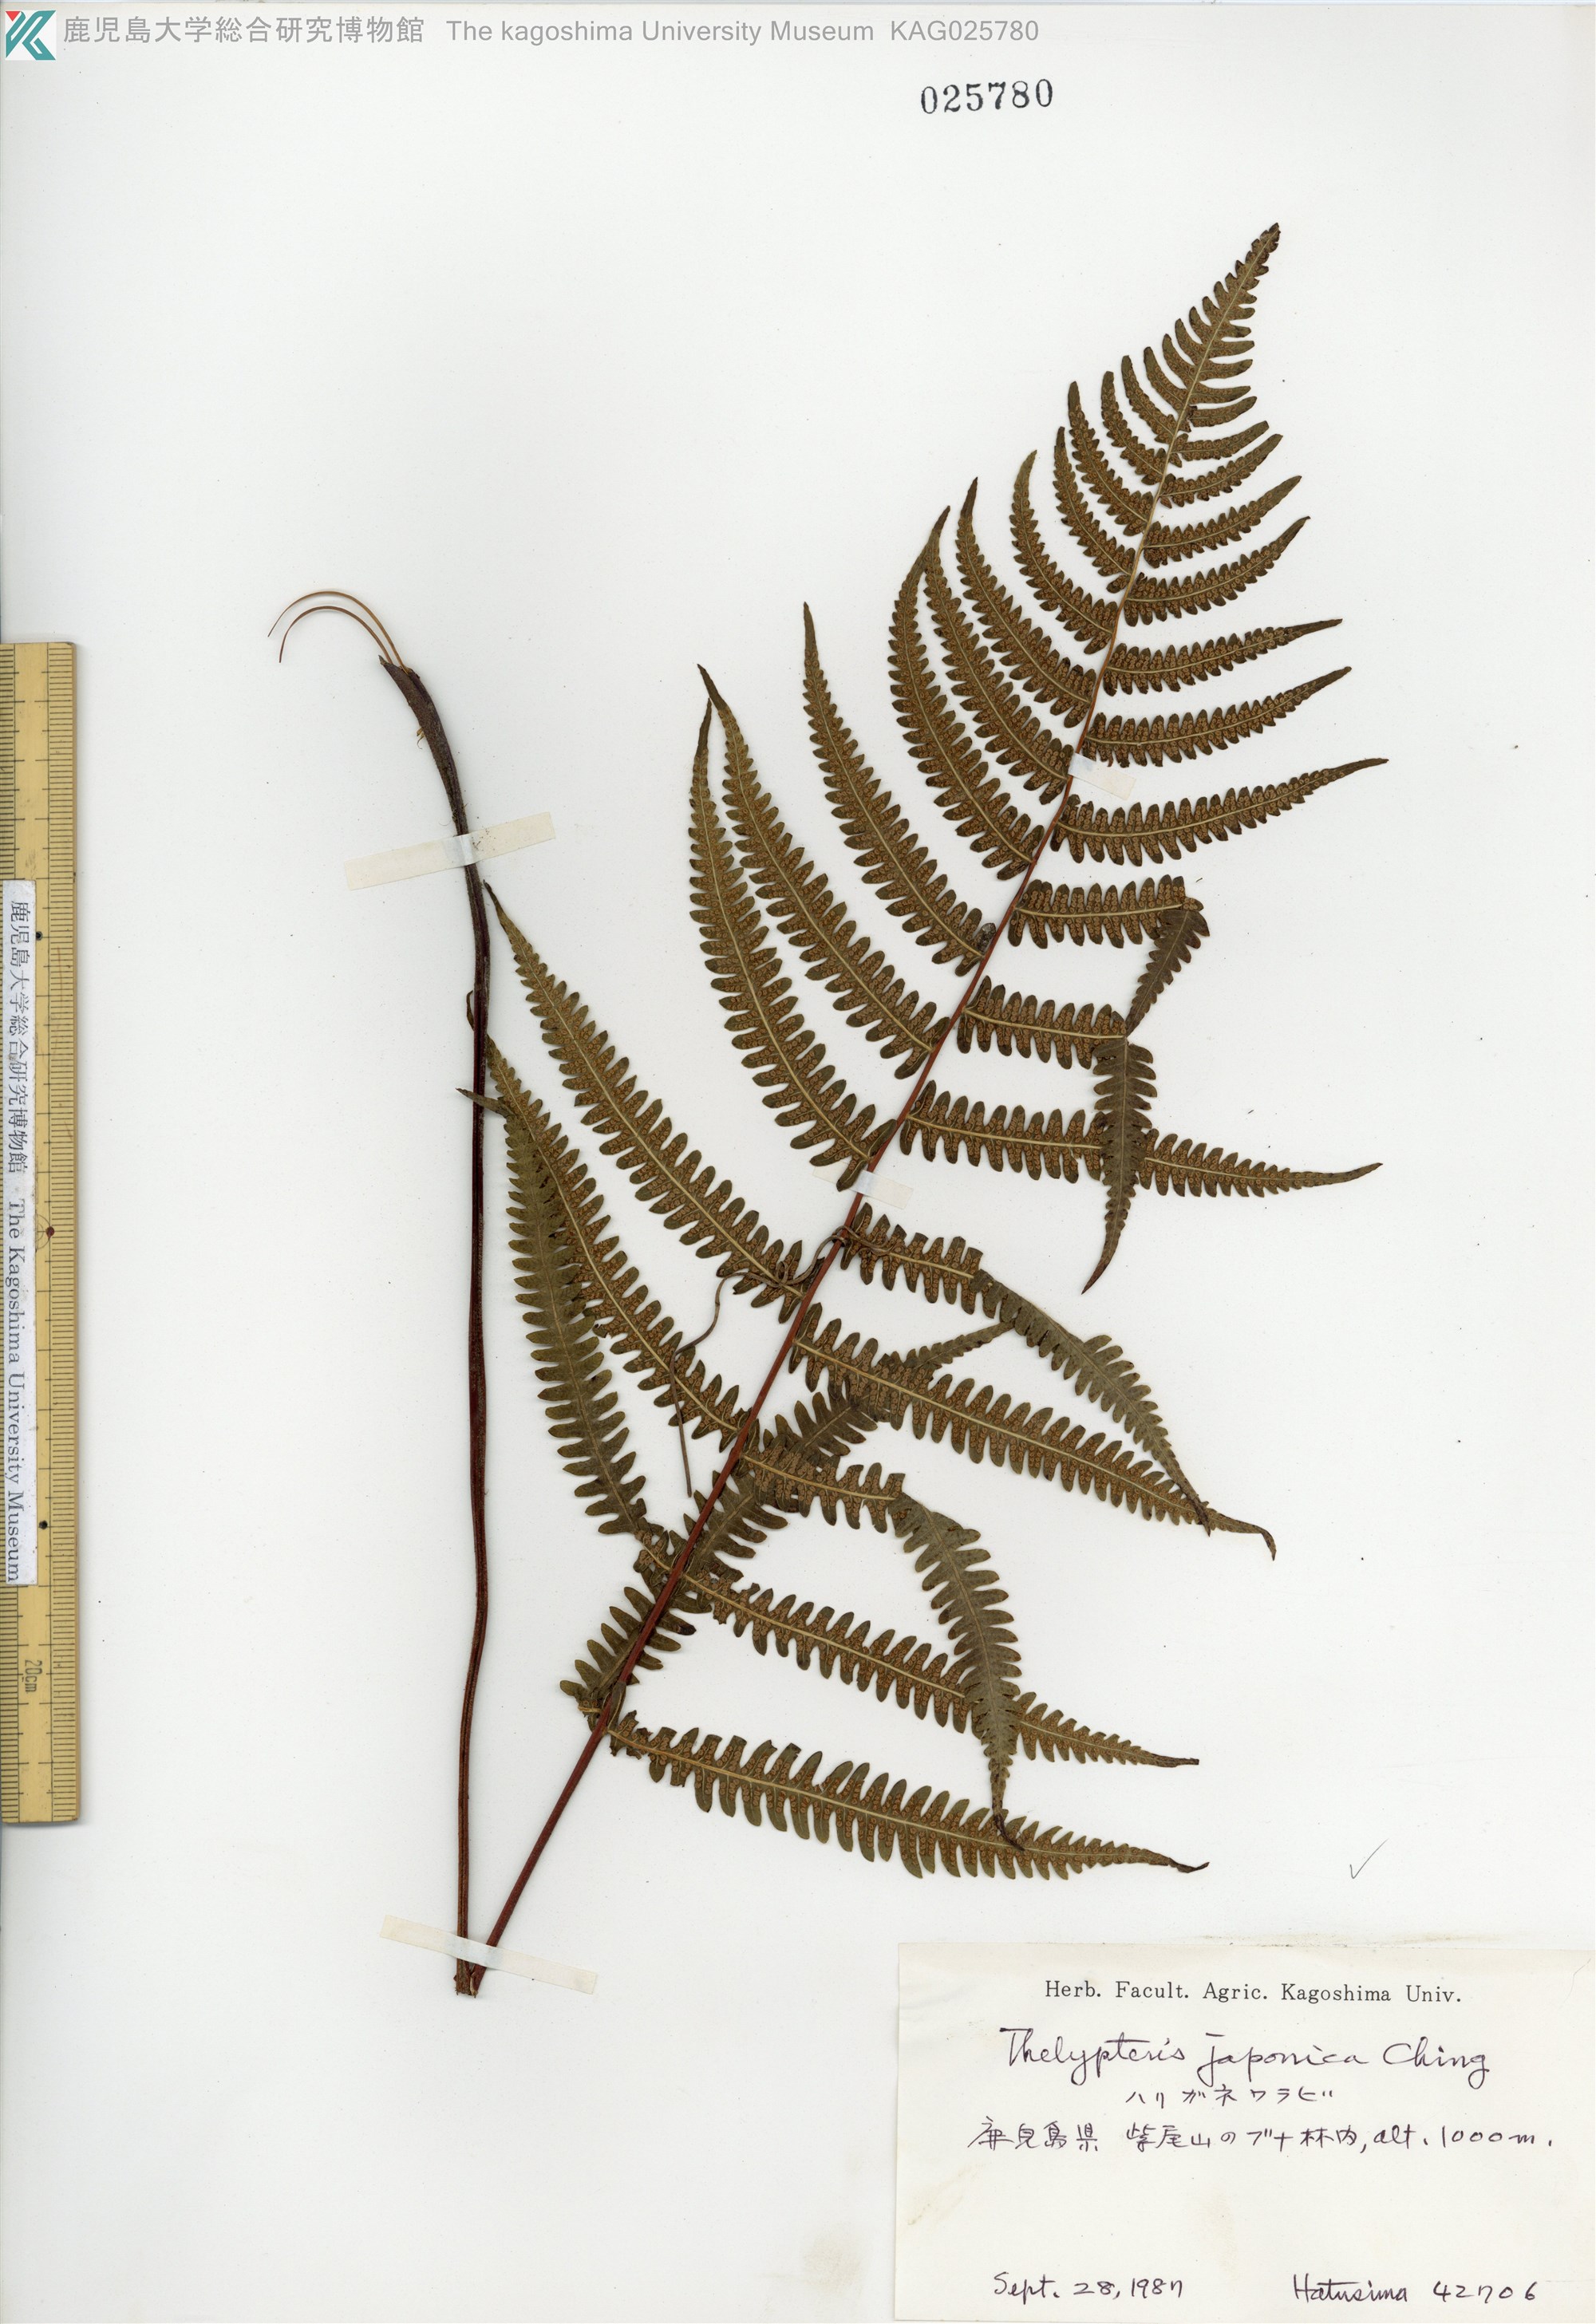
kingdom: Plantae
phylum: Tracheophyta
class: Polypodiopsida
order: Polypodiales
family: Thelypteridaceae
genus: Coryphopteris
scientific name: Coryphopteris japonica
